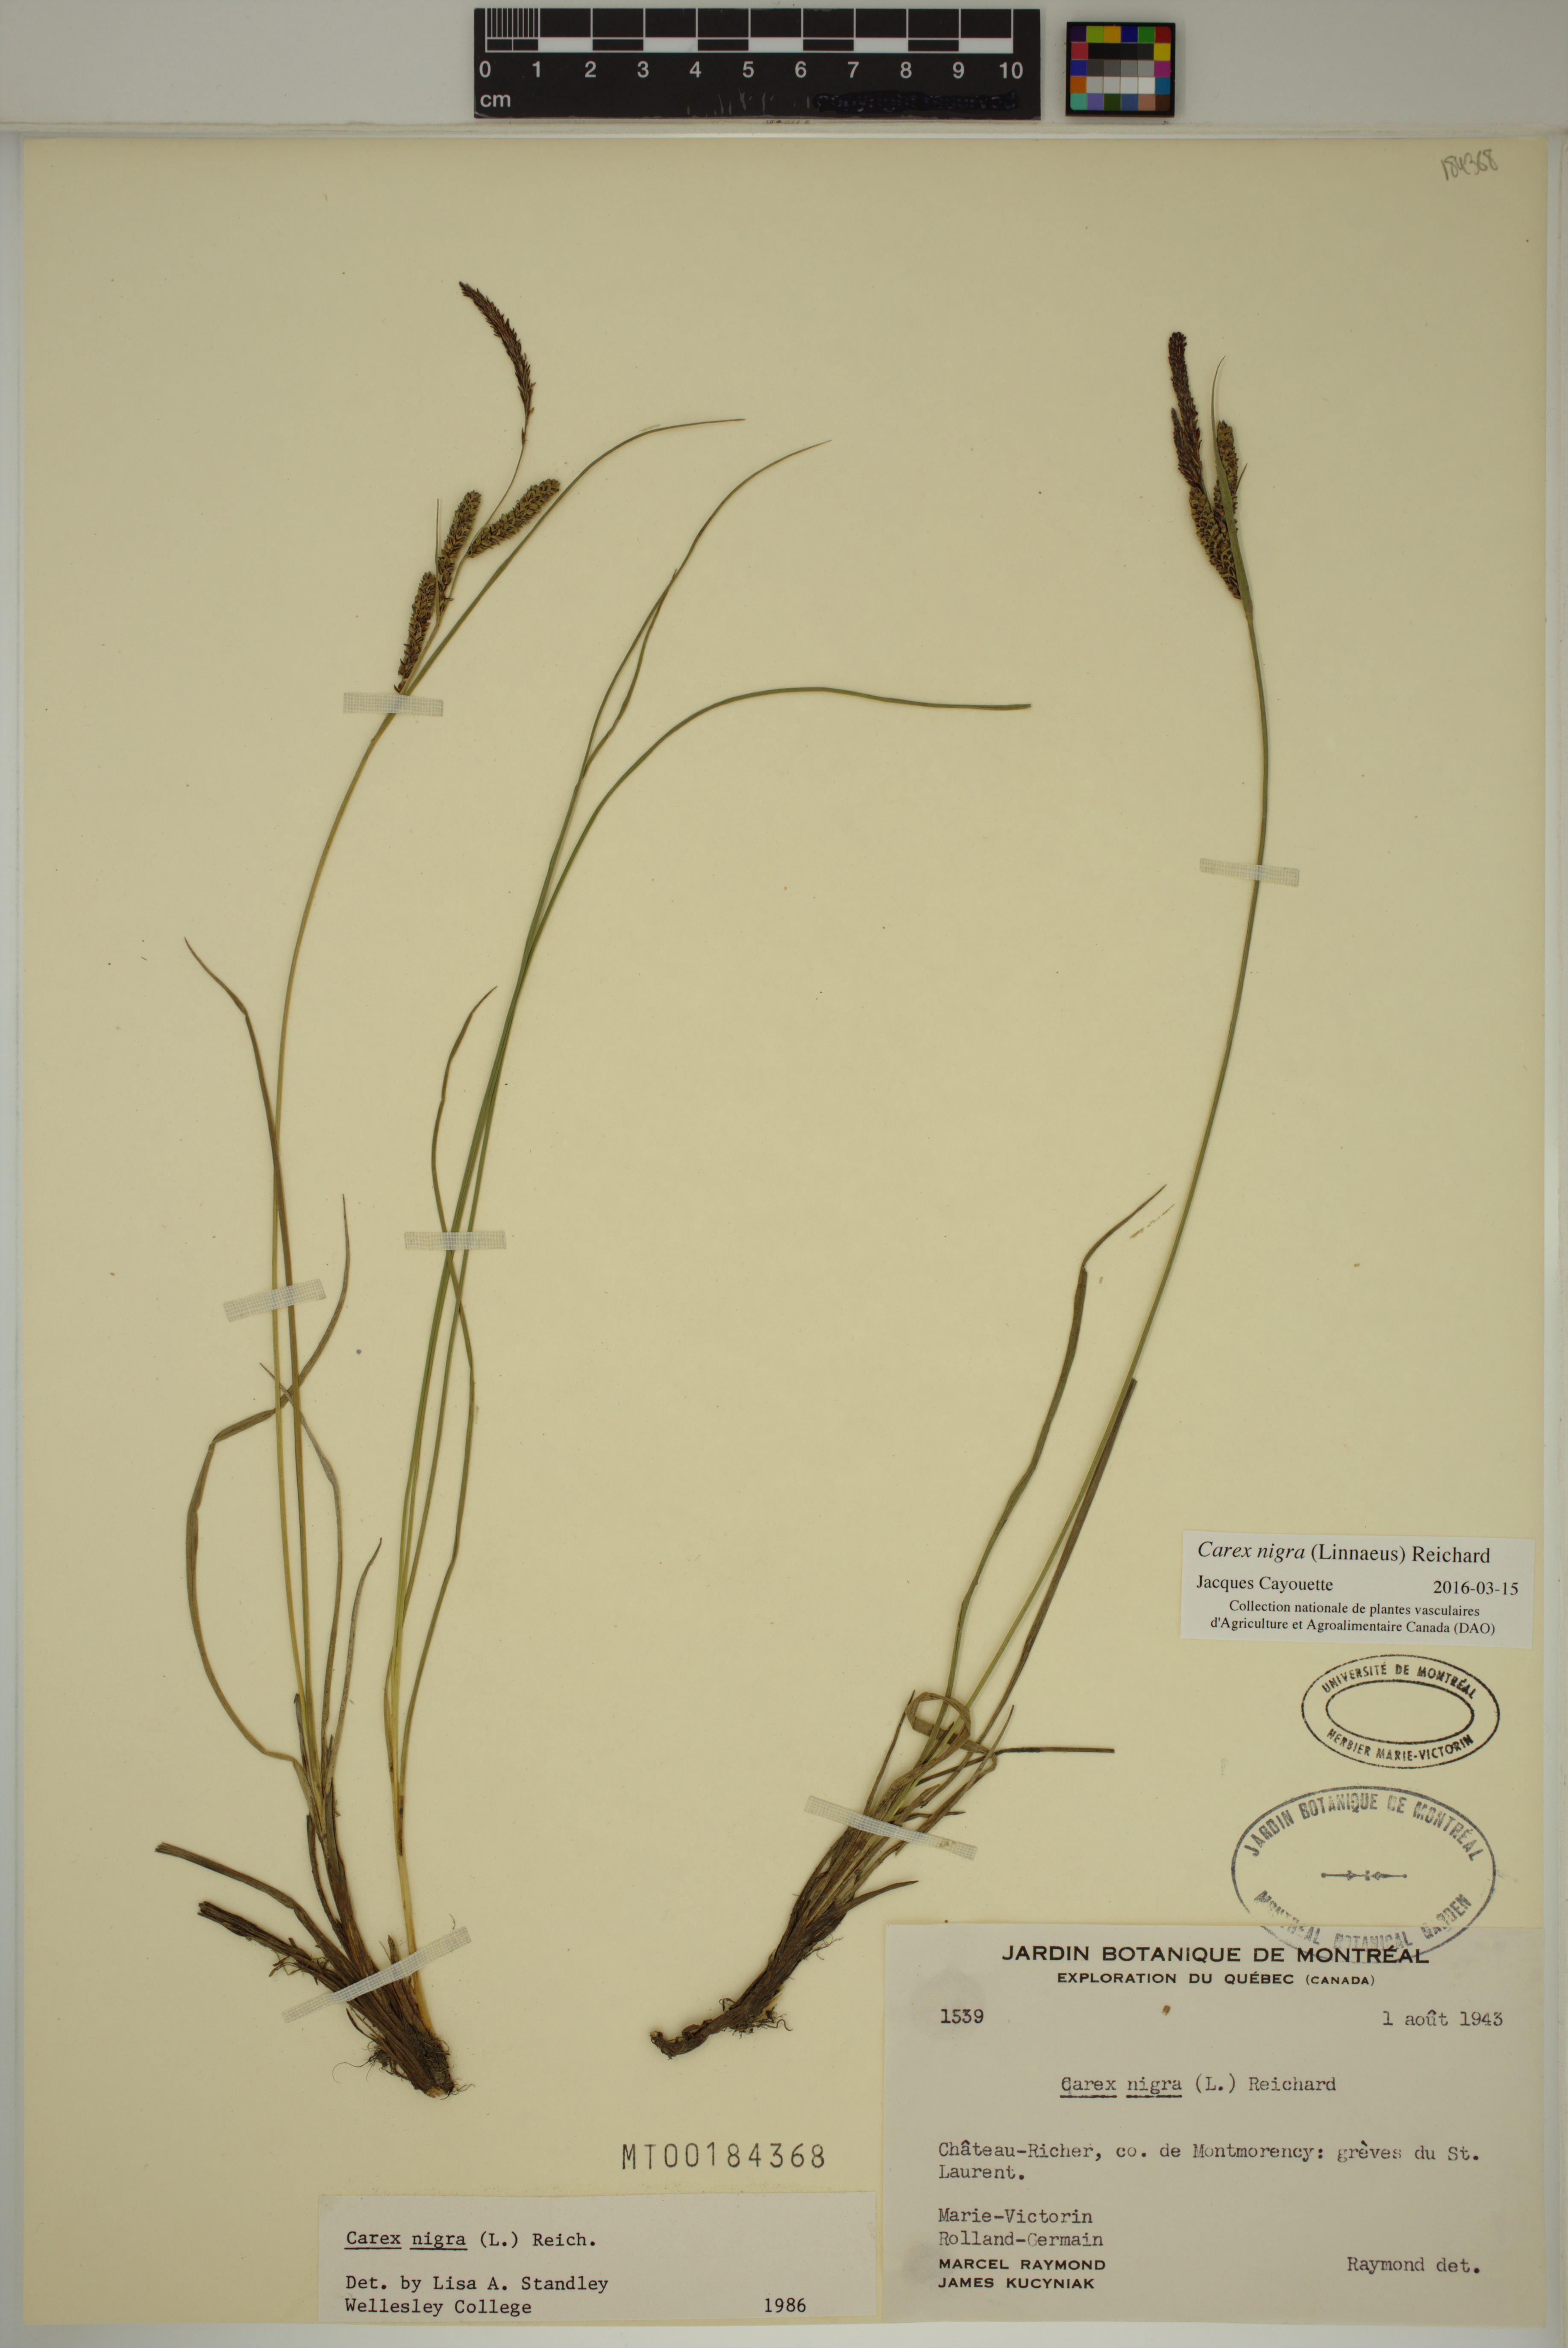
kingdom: Plantae
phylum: Tracheophyta
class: Liliopsida
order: Poales
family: Cyperaceae
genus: Carex
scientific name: Carex nigra
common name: Common sedge
